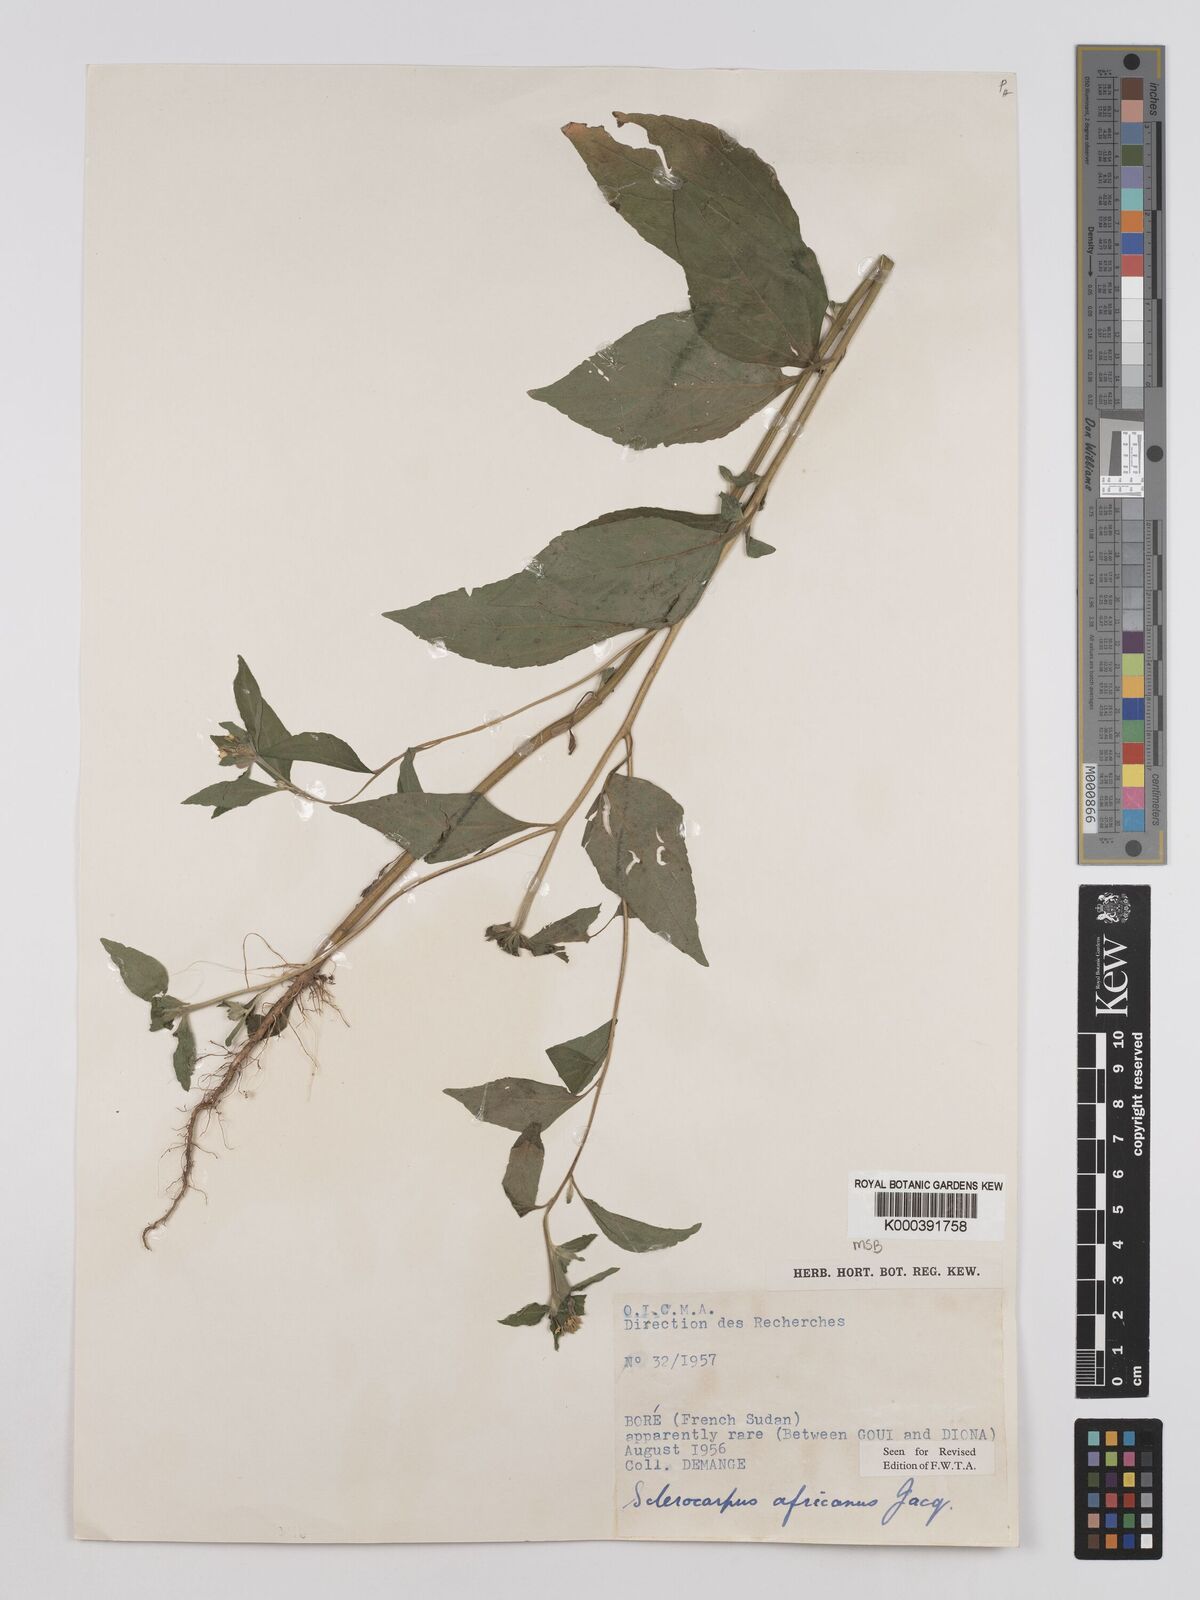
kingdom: Plantae
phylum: Tracheophyta
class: Magnoliopsida
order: Asterales
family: Asteraceae
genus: Sclerocarpus
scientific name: Sclerocarpus
